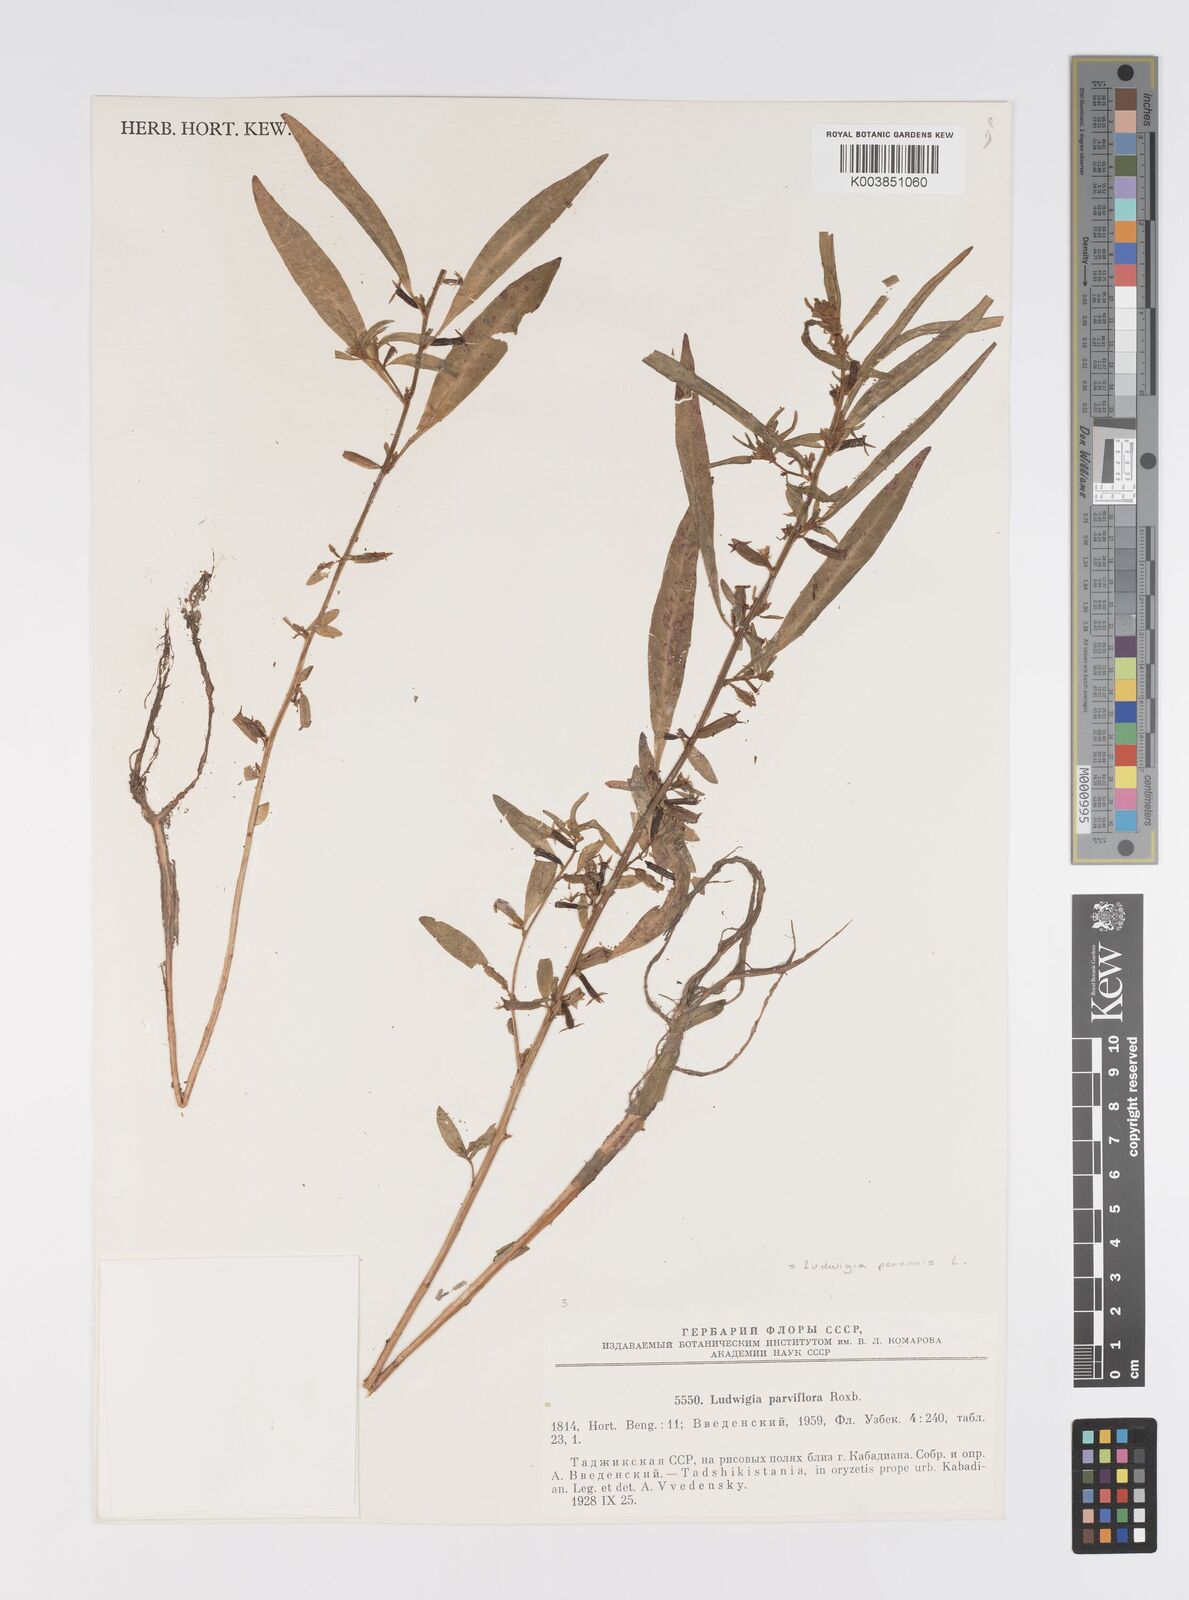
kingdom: Plantae
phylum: Tracheophyta
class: Magnoliopsida
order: Myrtales
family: Onagraceae
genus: Ludwigia
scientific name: Ludwigia perennis
